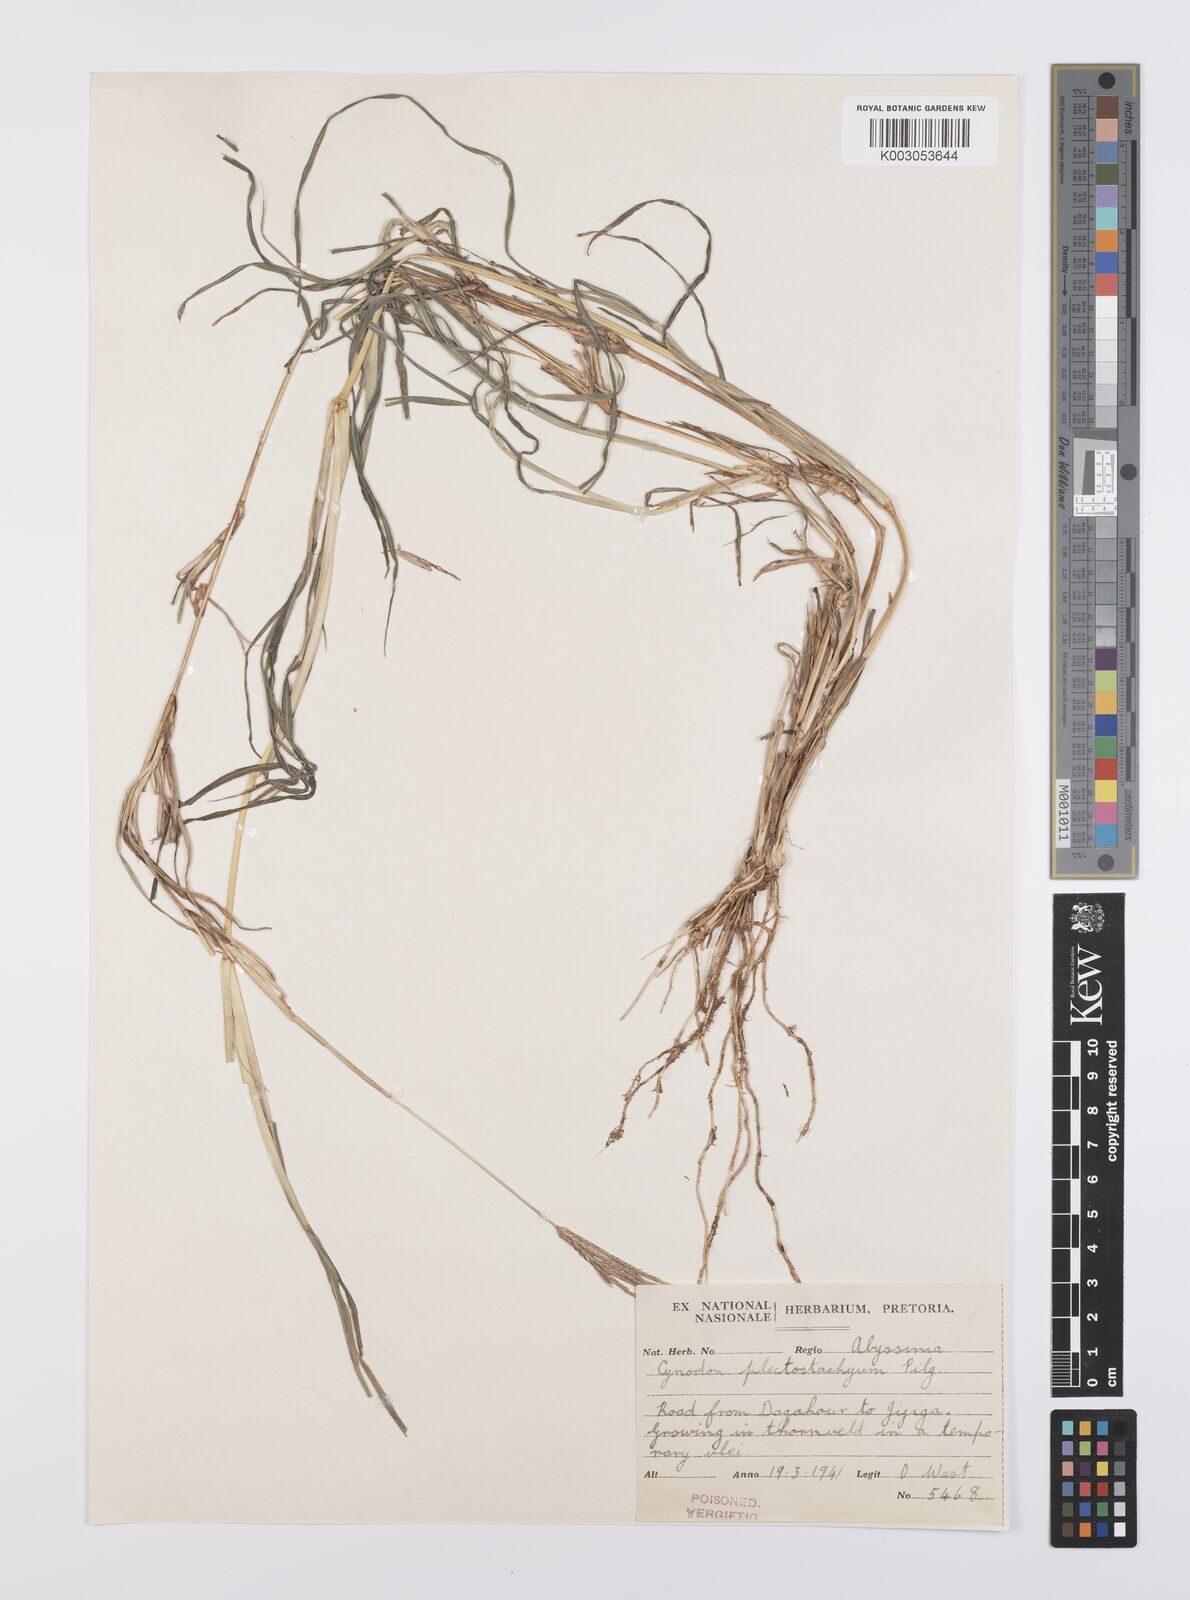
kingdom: Plantae
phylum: Tracheophyta
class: Liliopsida
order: Poales
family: Poaceae
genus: Cynodon
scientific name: Cynodon plectostachyus
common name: Stargrass
